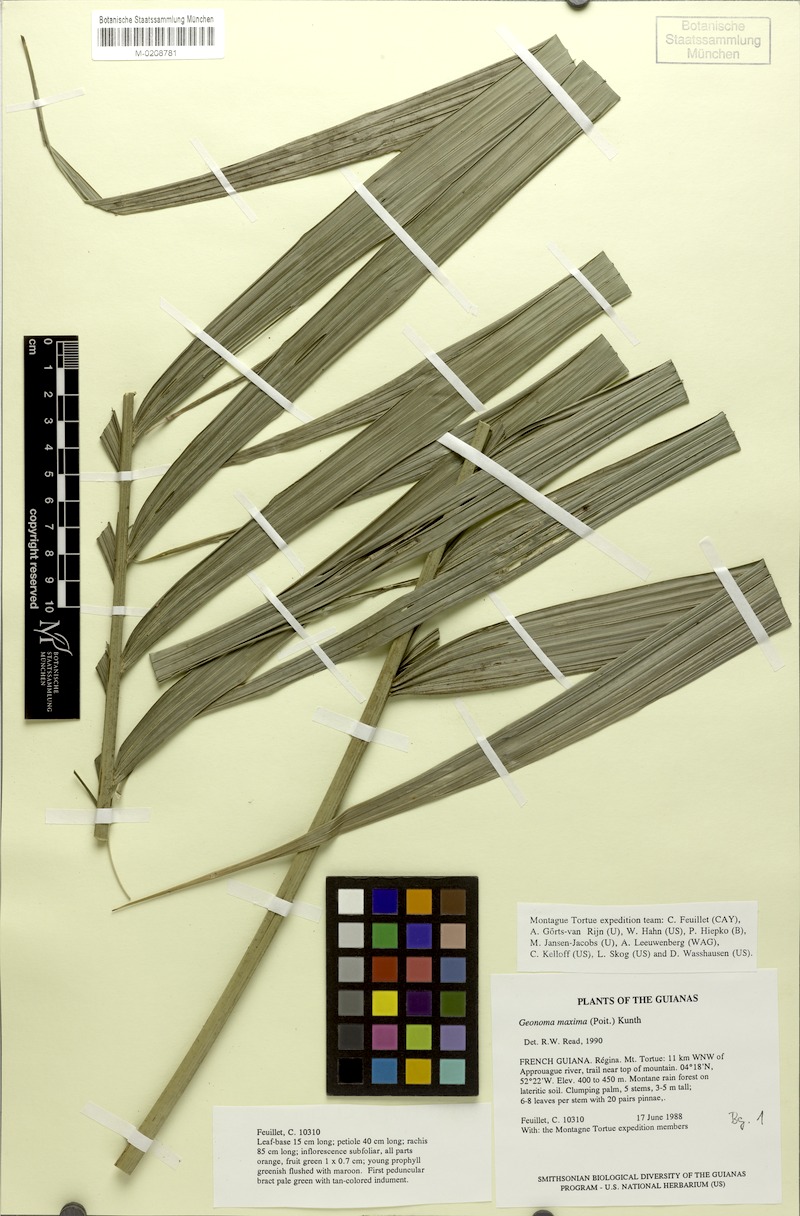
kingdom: Plantae
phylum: Tracheophyta
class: Liliopsida
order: Arecales
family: Arecaceae
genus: Geonoma
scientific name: Geonoma maxima
